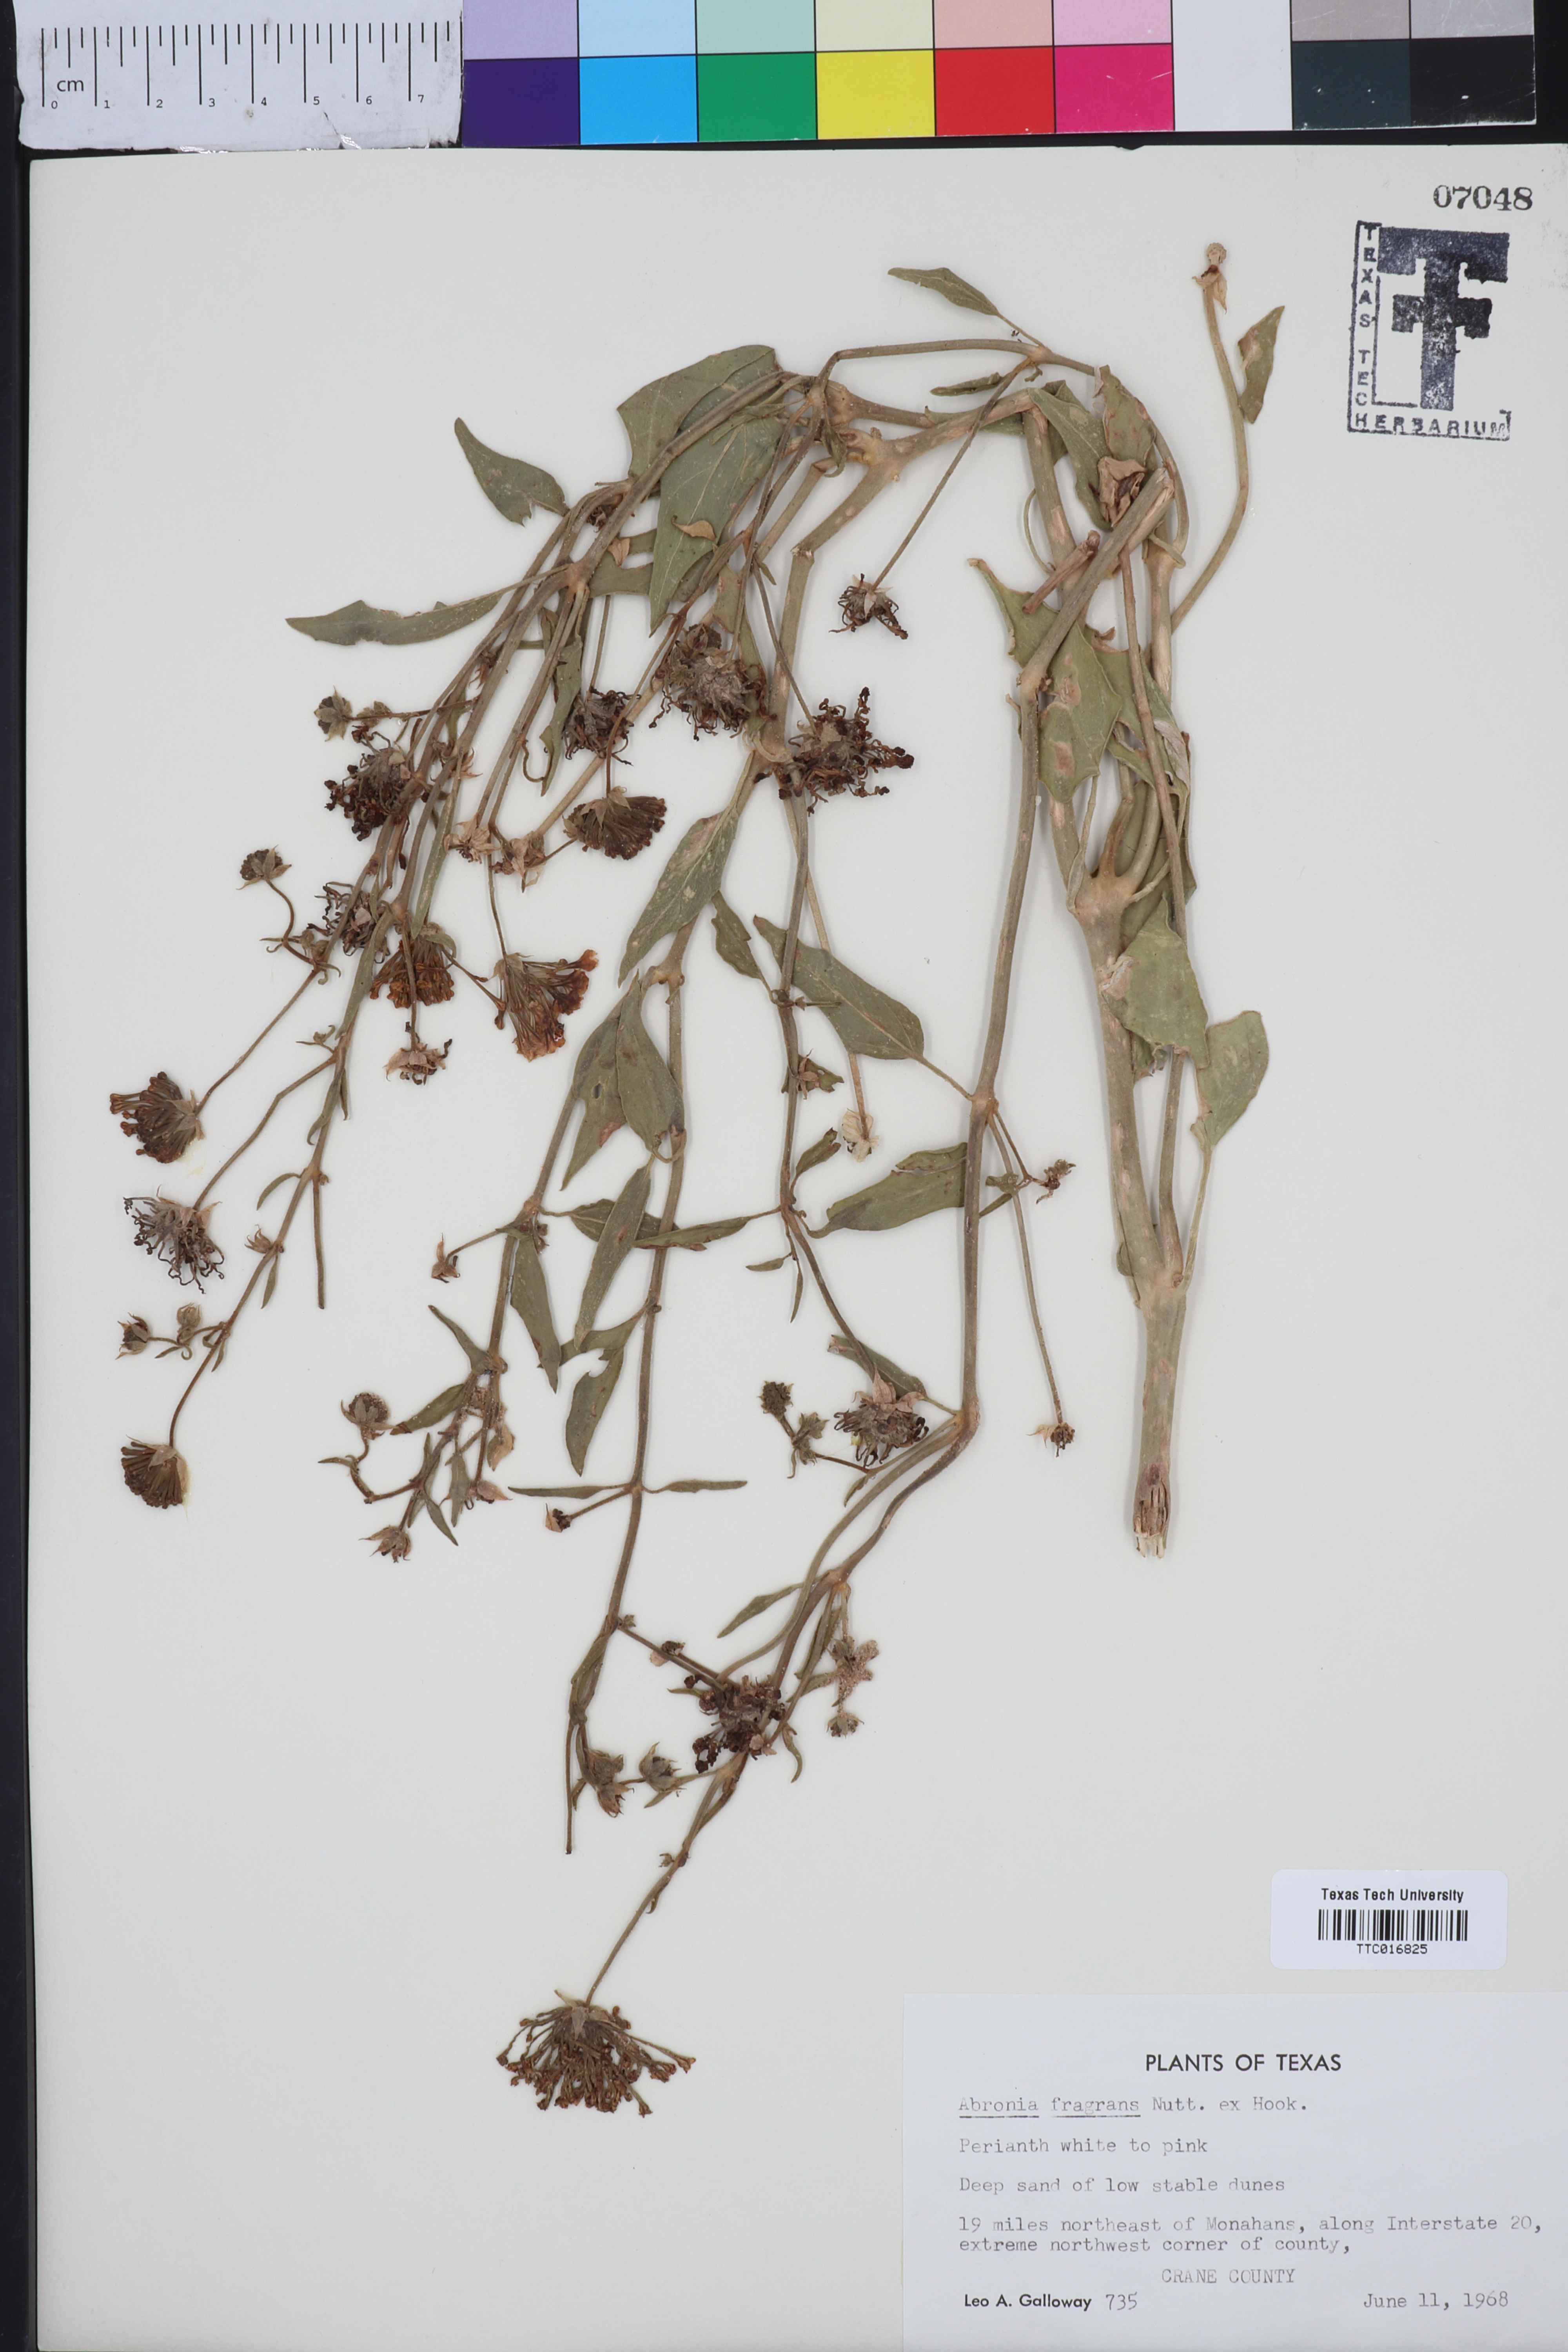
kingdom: Plantae
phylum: Tracheophyta
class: Magnoliopsida
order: Caryophyllales
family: Nyctaginaceae
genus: Abronia
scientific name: Abronia fragrans
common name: Fragrant sand-verbena
